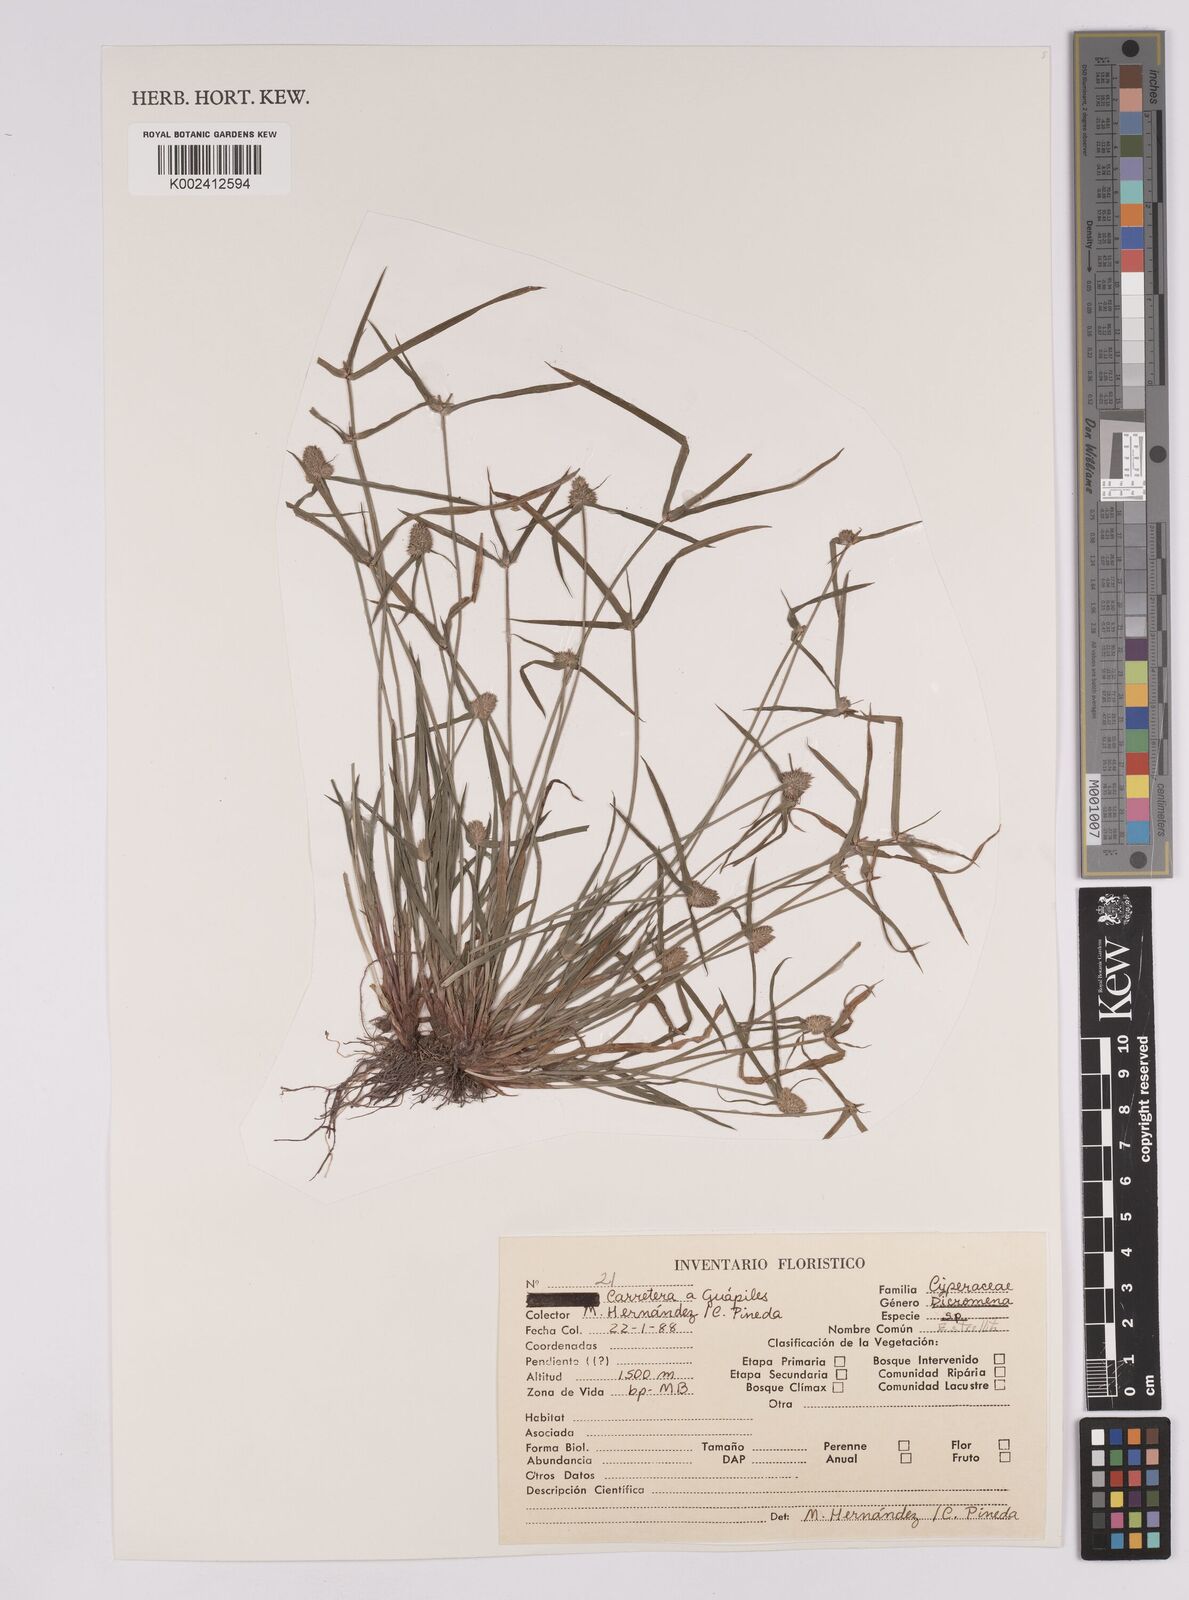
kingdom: Plantae
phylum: Tracheophyta
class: Liliopsida
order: Poales
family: Cyperaceae
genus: Rhynchospora
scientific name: Rhynchospora
